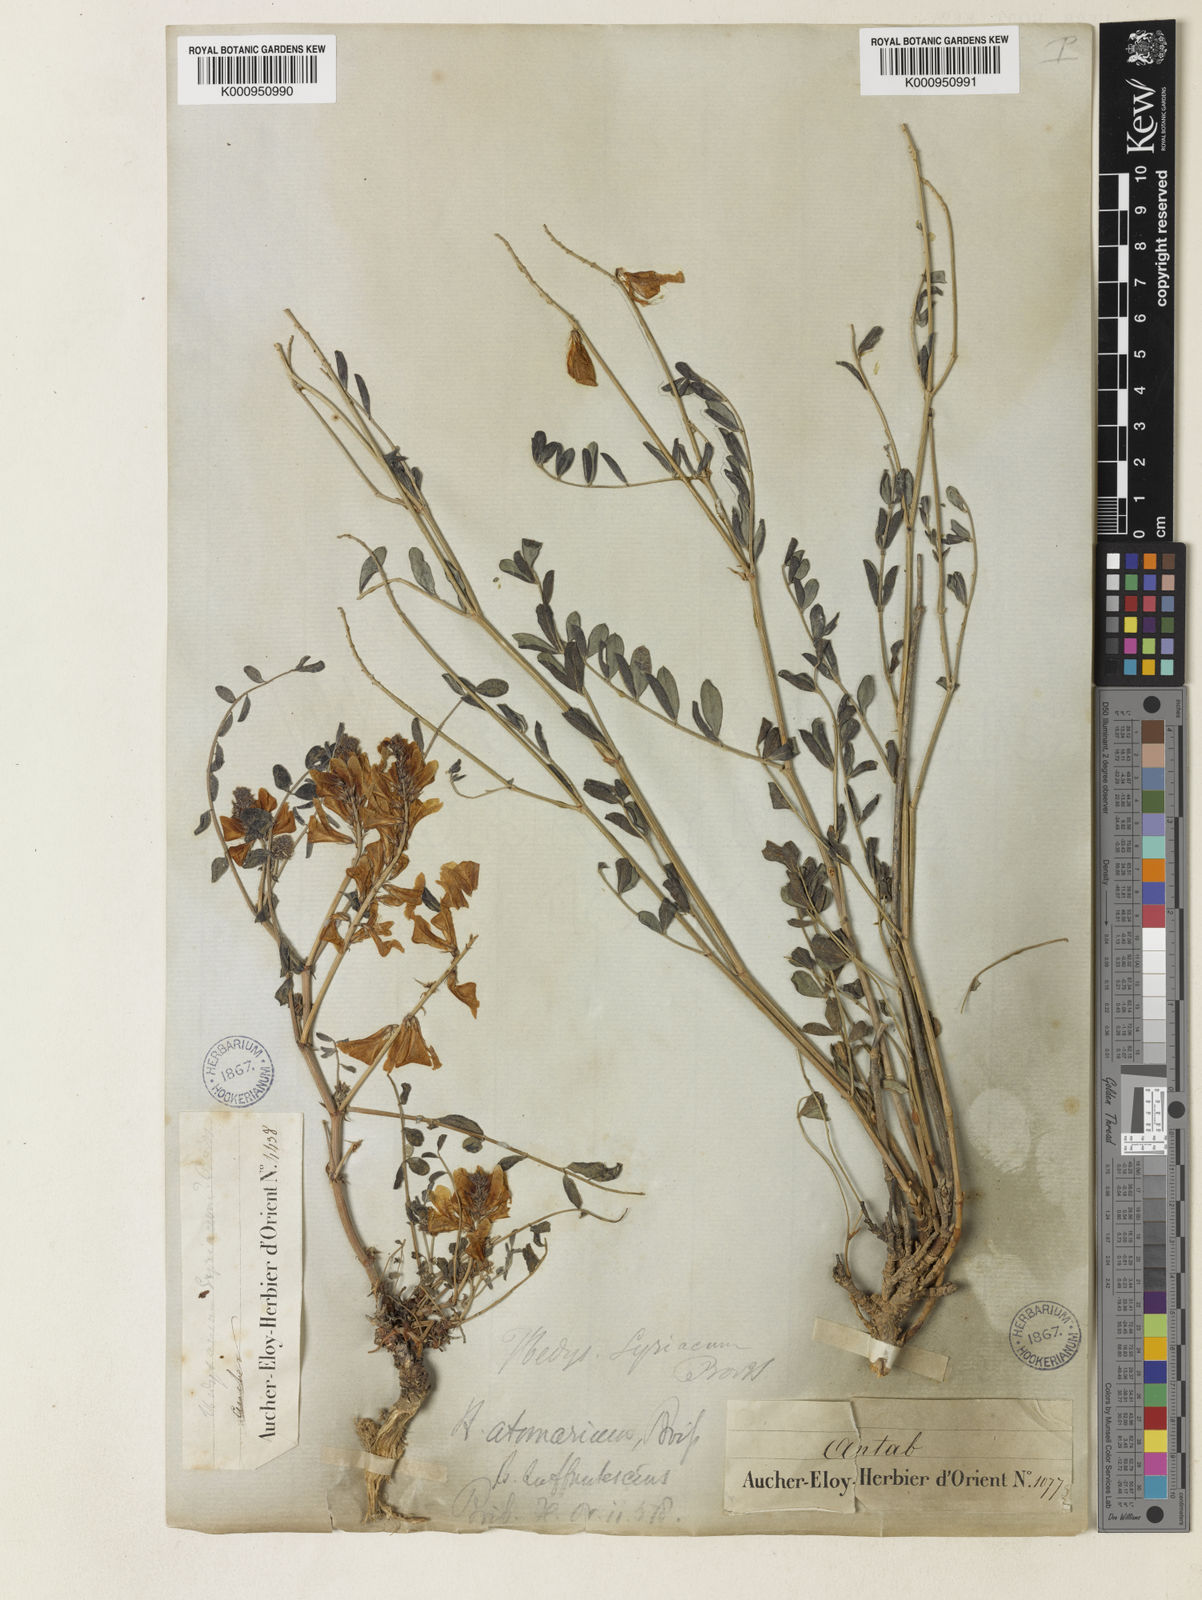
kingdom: Plantae
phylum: Tracheophyta
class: Magnoliopsida
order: Fabales
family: Fabaceae
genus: Hedysarum
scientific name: Hedysarum syriacum
